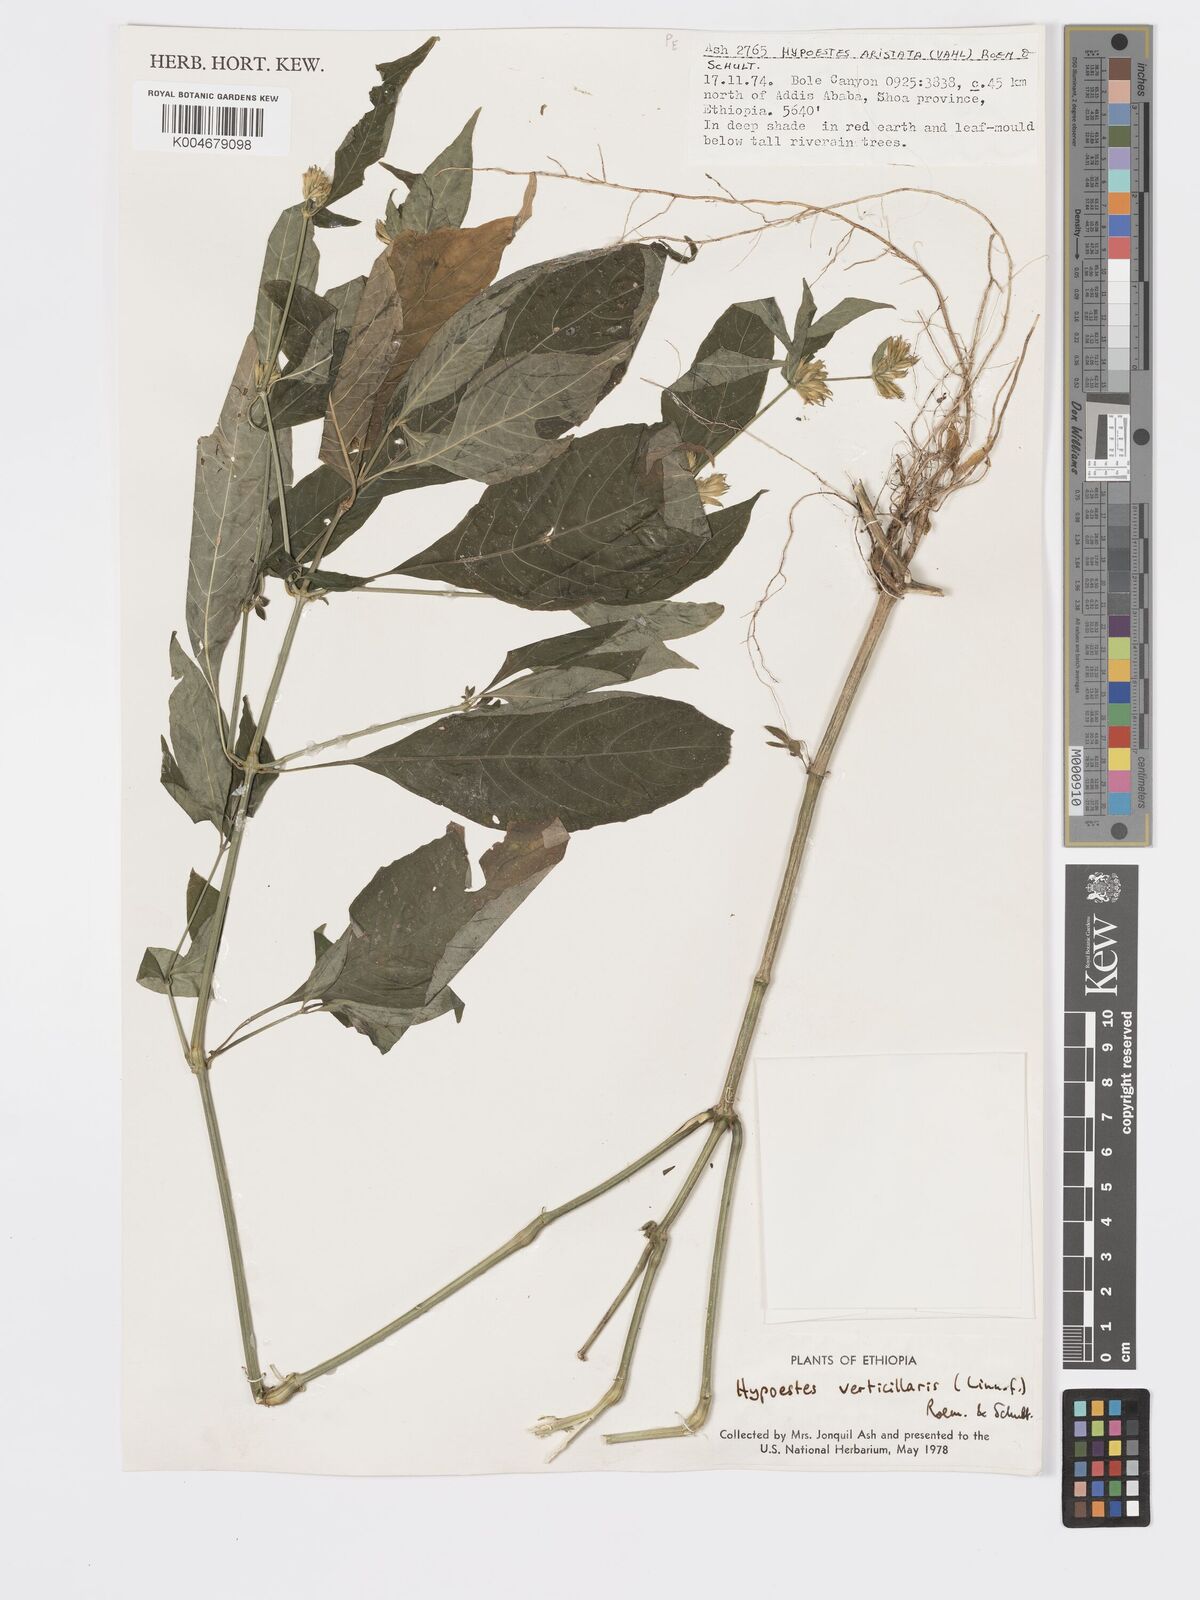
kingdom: Plantae
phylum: Tracheophyta
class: Magnoliopsida
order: Lamiales
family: Acanthaceae
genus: Hypoestes
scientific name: Hypoestes forskaolii
